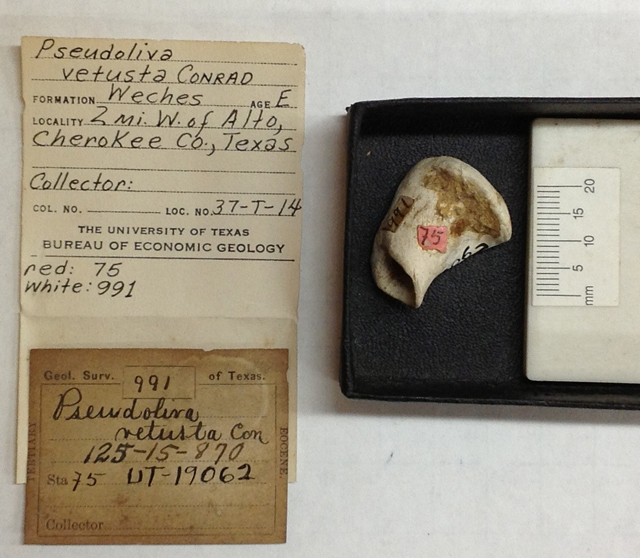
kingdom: Animalia
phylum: Mollusca
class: Gastropoda
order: Neogastropoda
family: Pseudolividae
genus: Pseudoliva
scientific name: Pseudoliva vestusa
